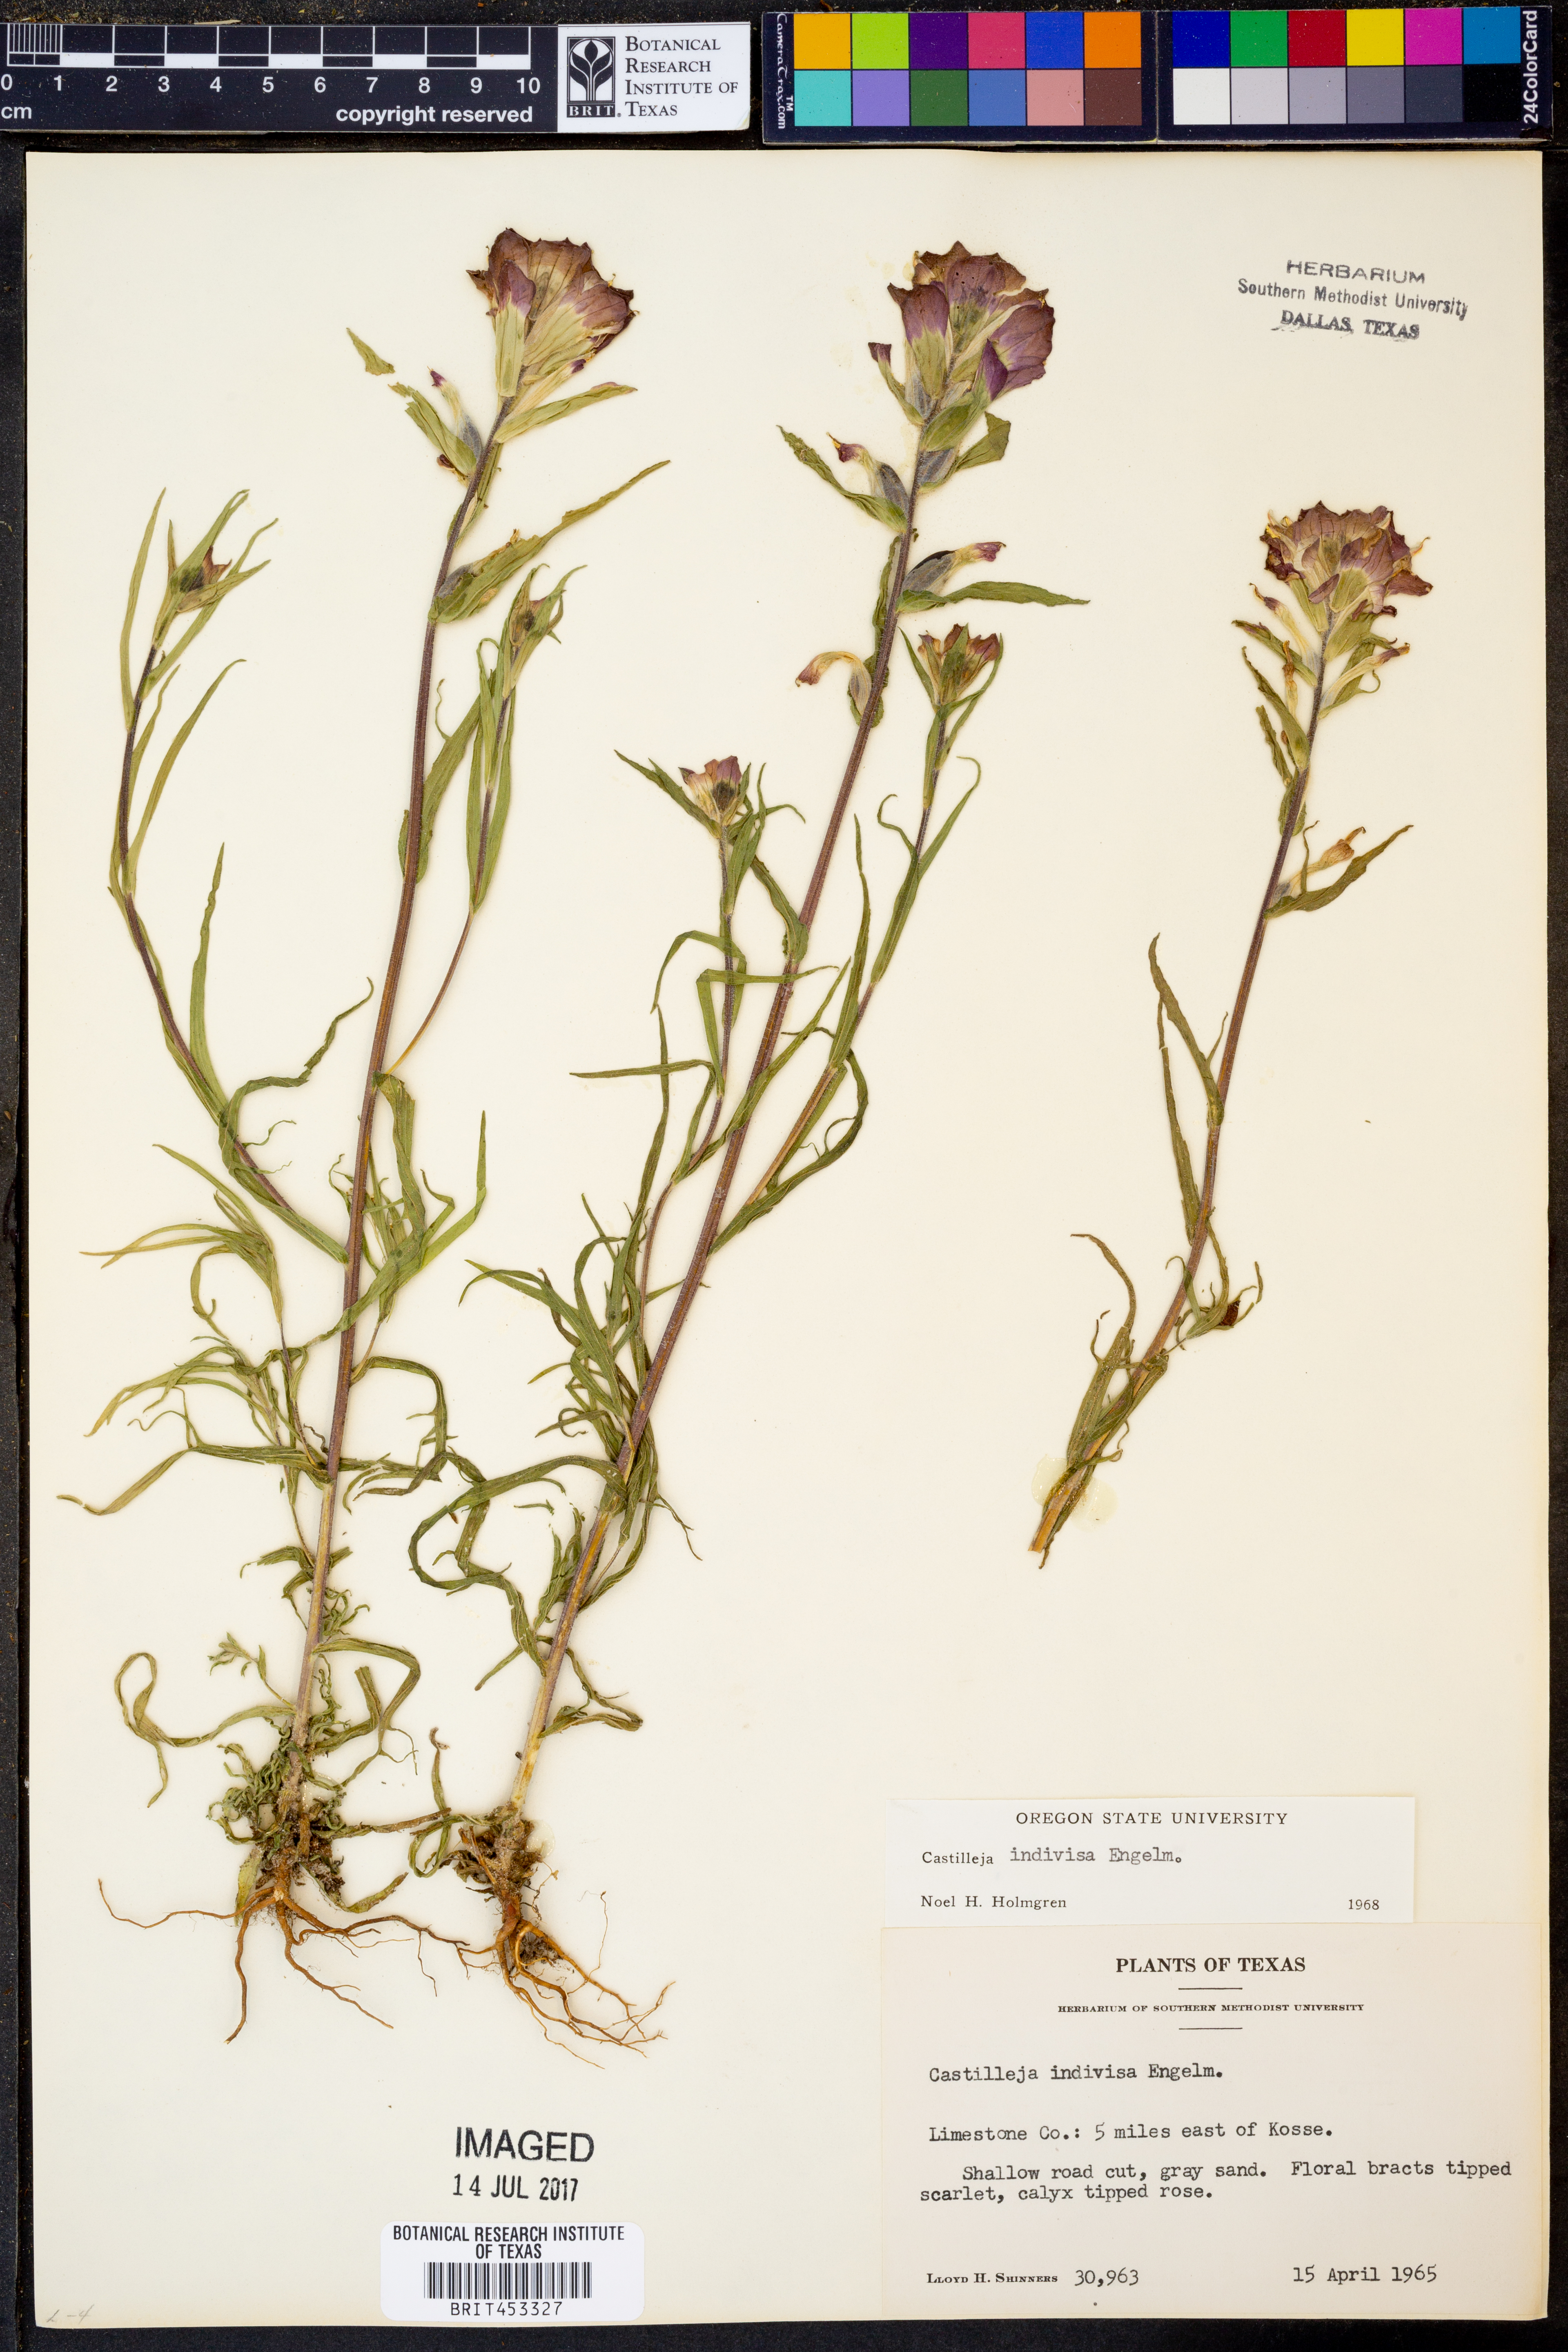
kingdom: Plantae
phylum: Tracheophyta
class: Magnoliopsida
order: Lamiales
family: Orobanchaceae
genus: Castilleja
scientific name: Castilleja indivisa
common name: Texas paintbrush
